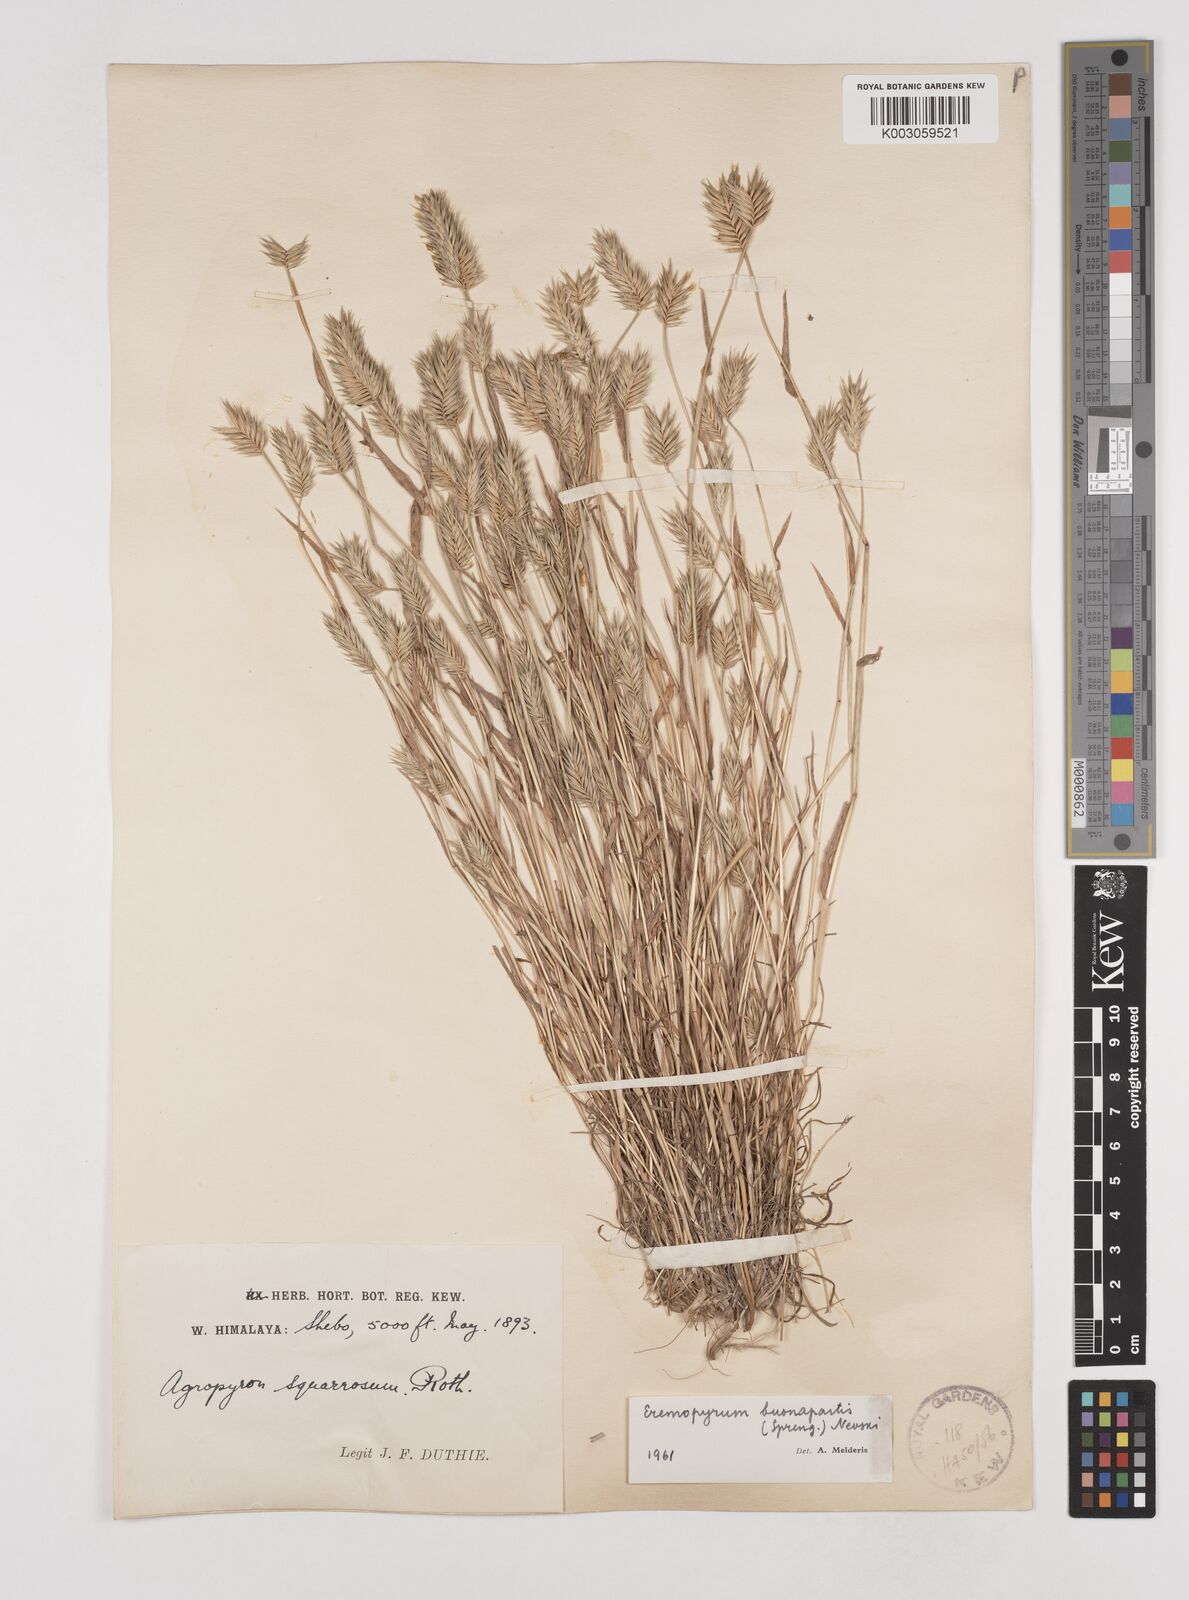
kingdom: Plantae
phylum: Tracheophyta
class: Liliopsida
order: Poales
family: Poaceae
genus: Eremopyrum
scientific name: Eremopyrum bonaepartis
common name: Tapertip false wheatgrass
